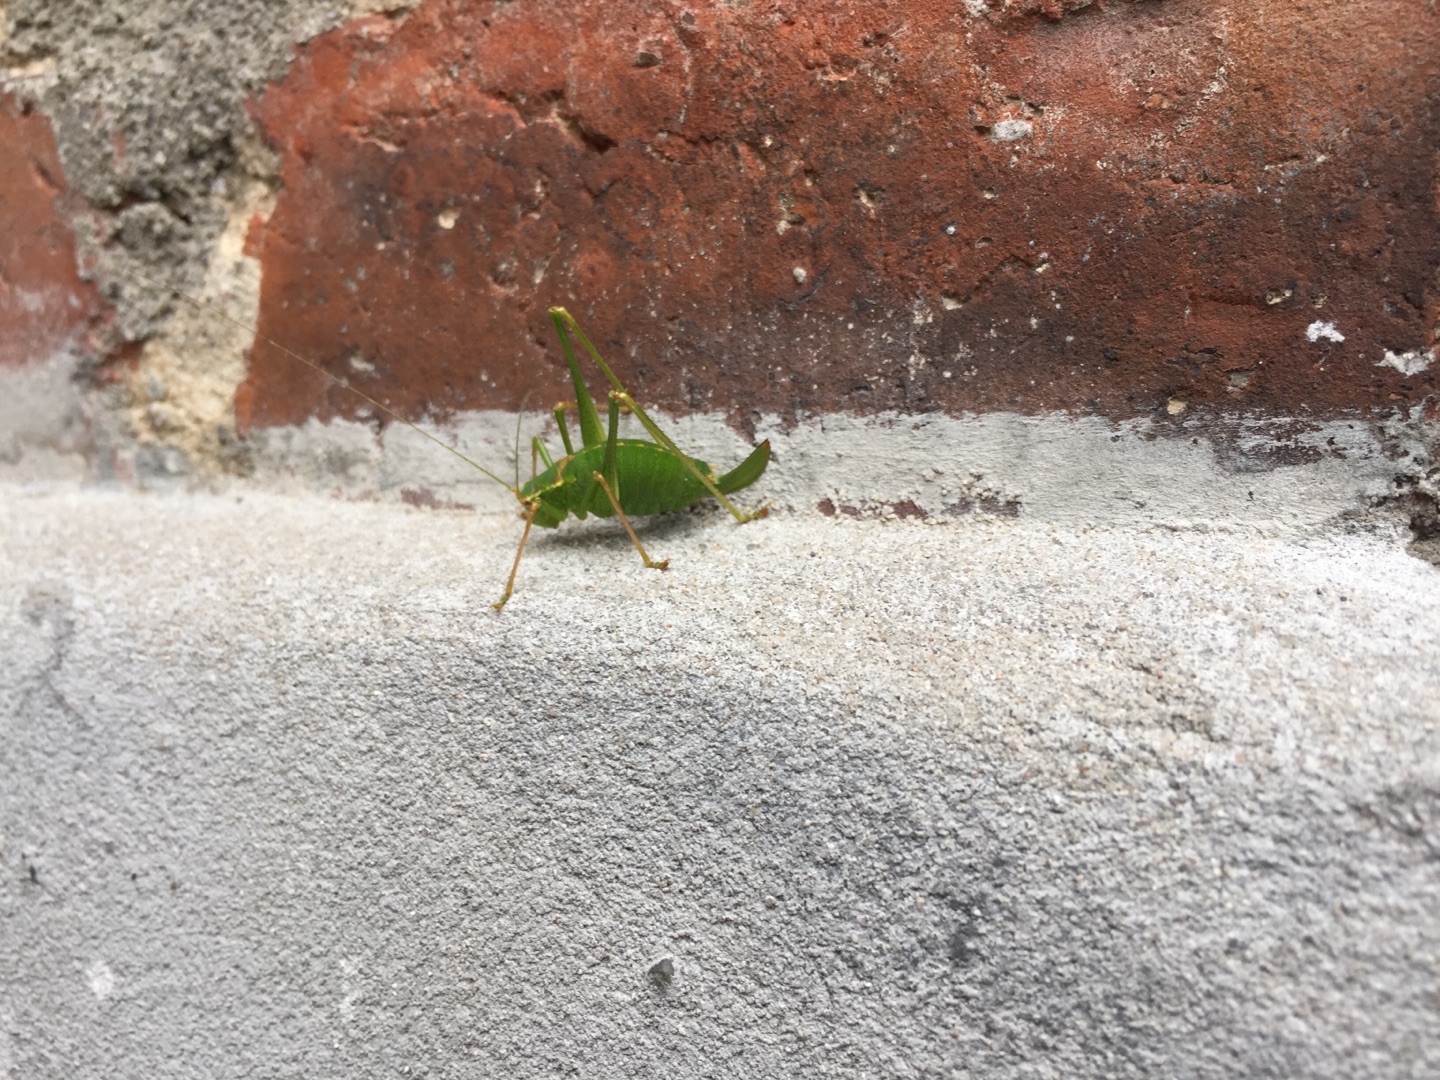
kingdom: Animalia
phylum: Arthropoda
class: Insecta
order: Orthoptera
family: Tettigoniidae
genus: Leptophyes
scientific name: Leptophyes punctatissima
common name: Krumknivgræshoppe
